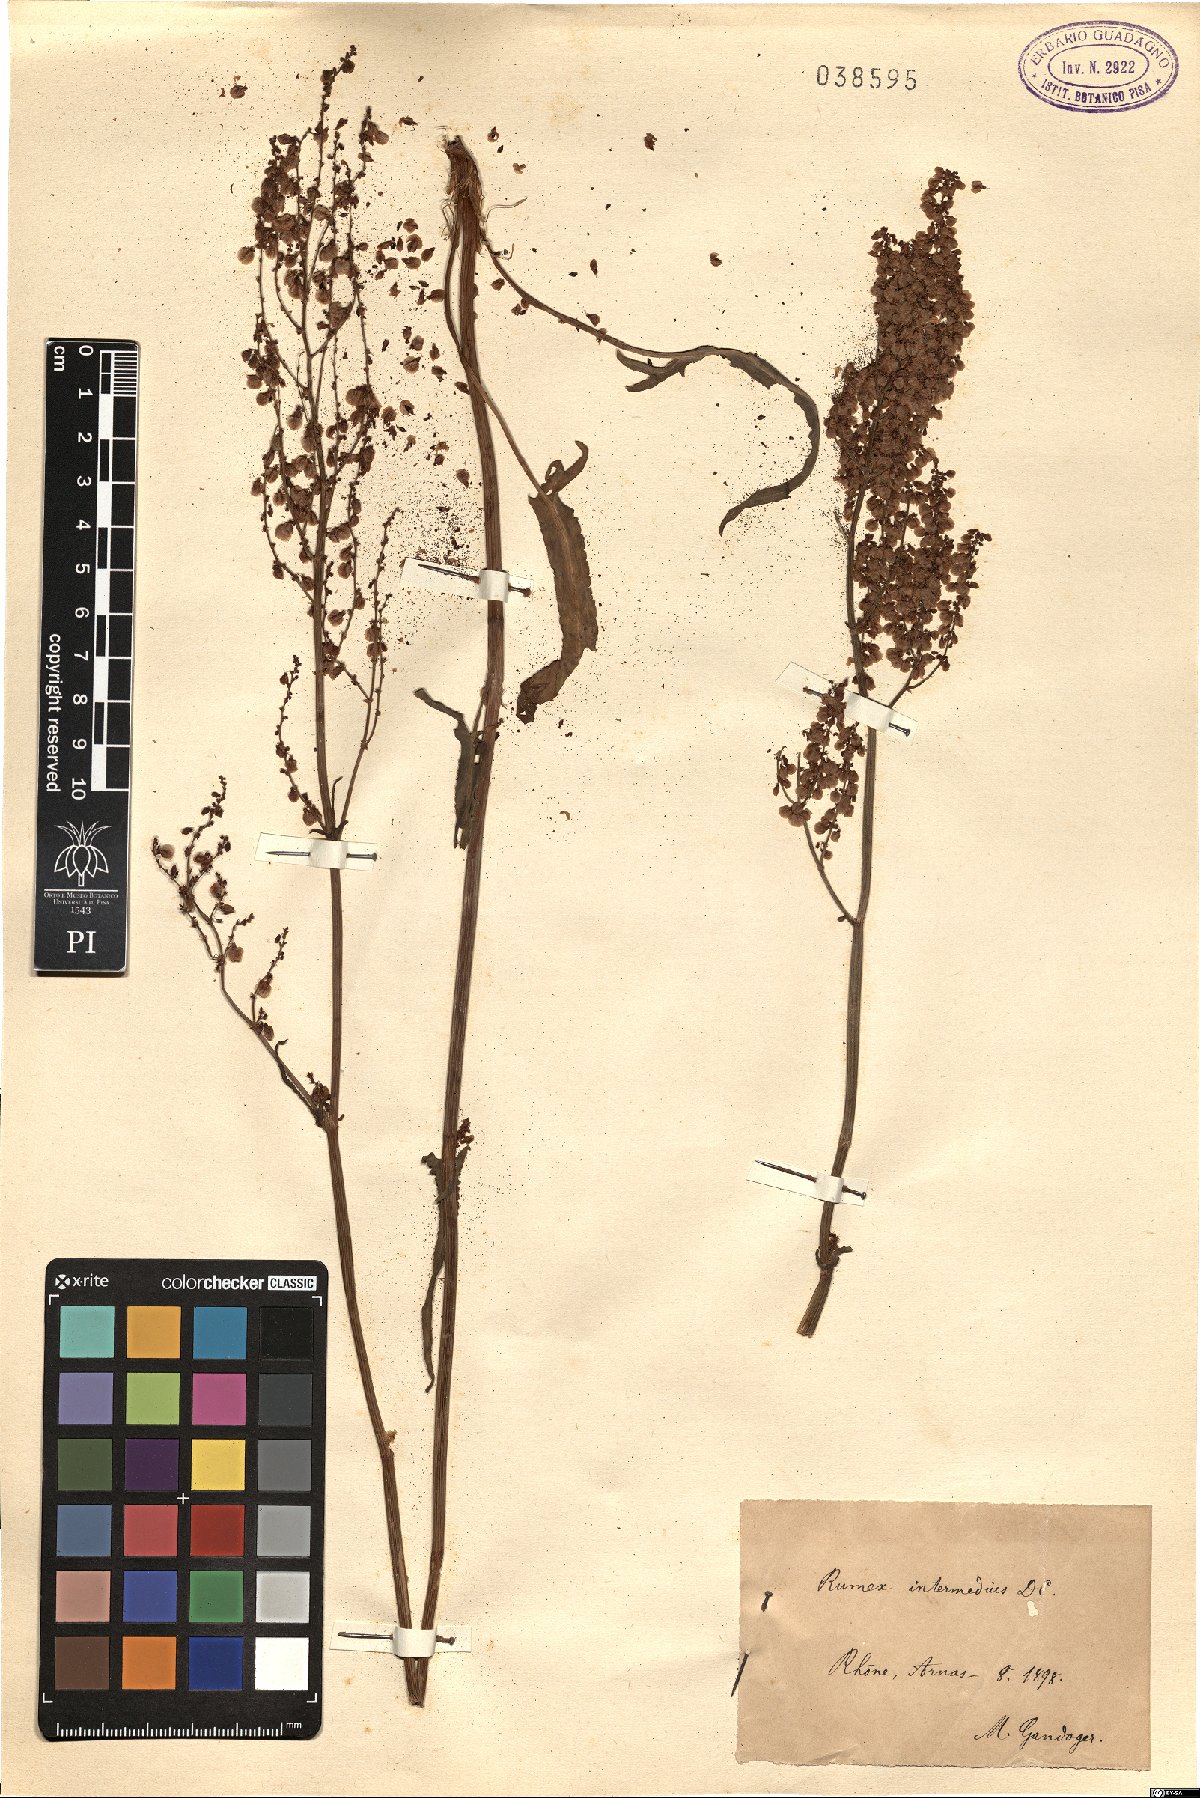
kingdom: Plantae
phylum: Tracheophyta
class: Magnoliopsida
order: Caryophyllales
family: Polygonaceae
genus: Rumex
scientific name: Rumex intermedius
